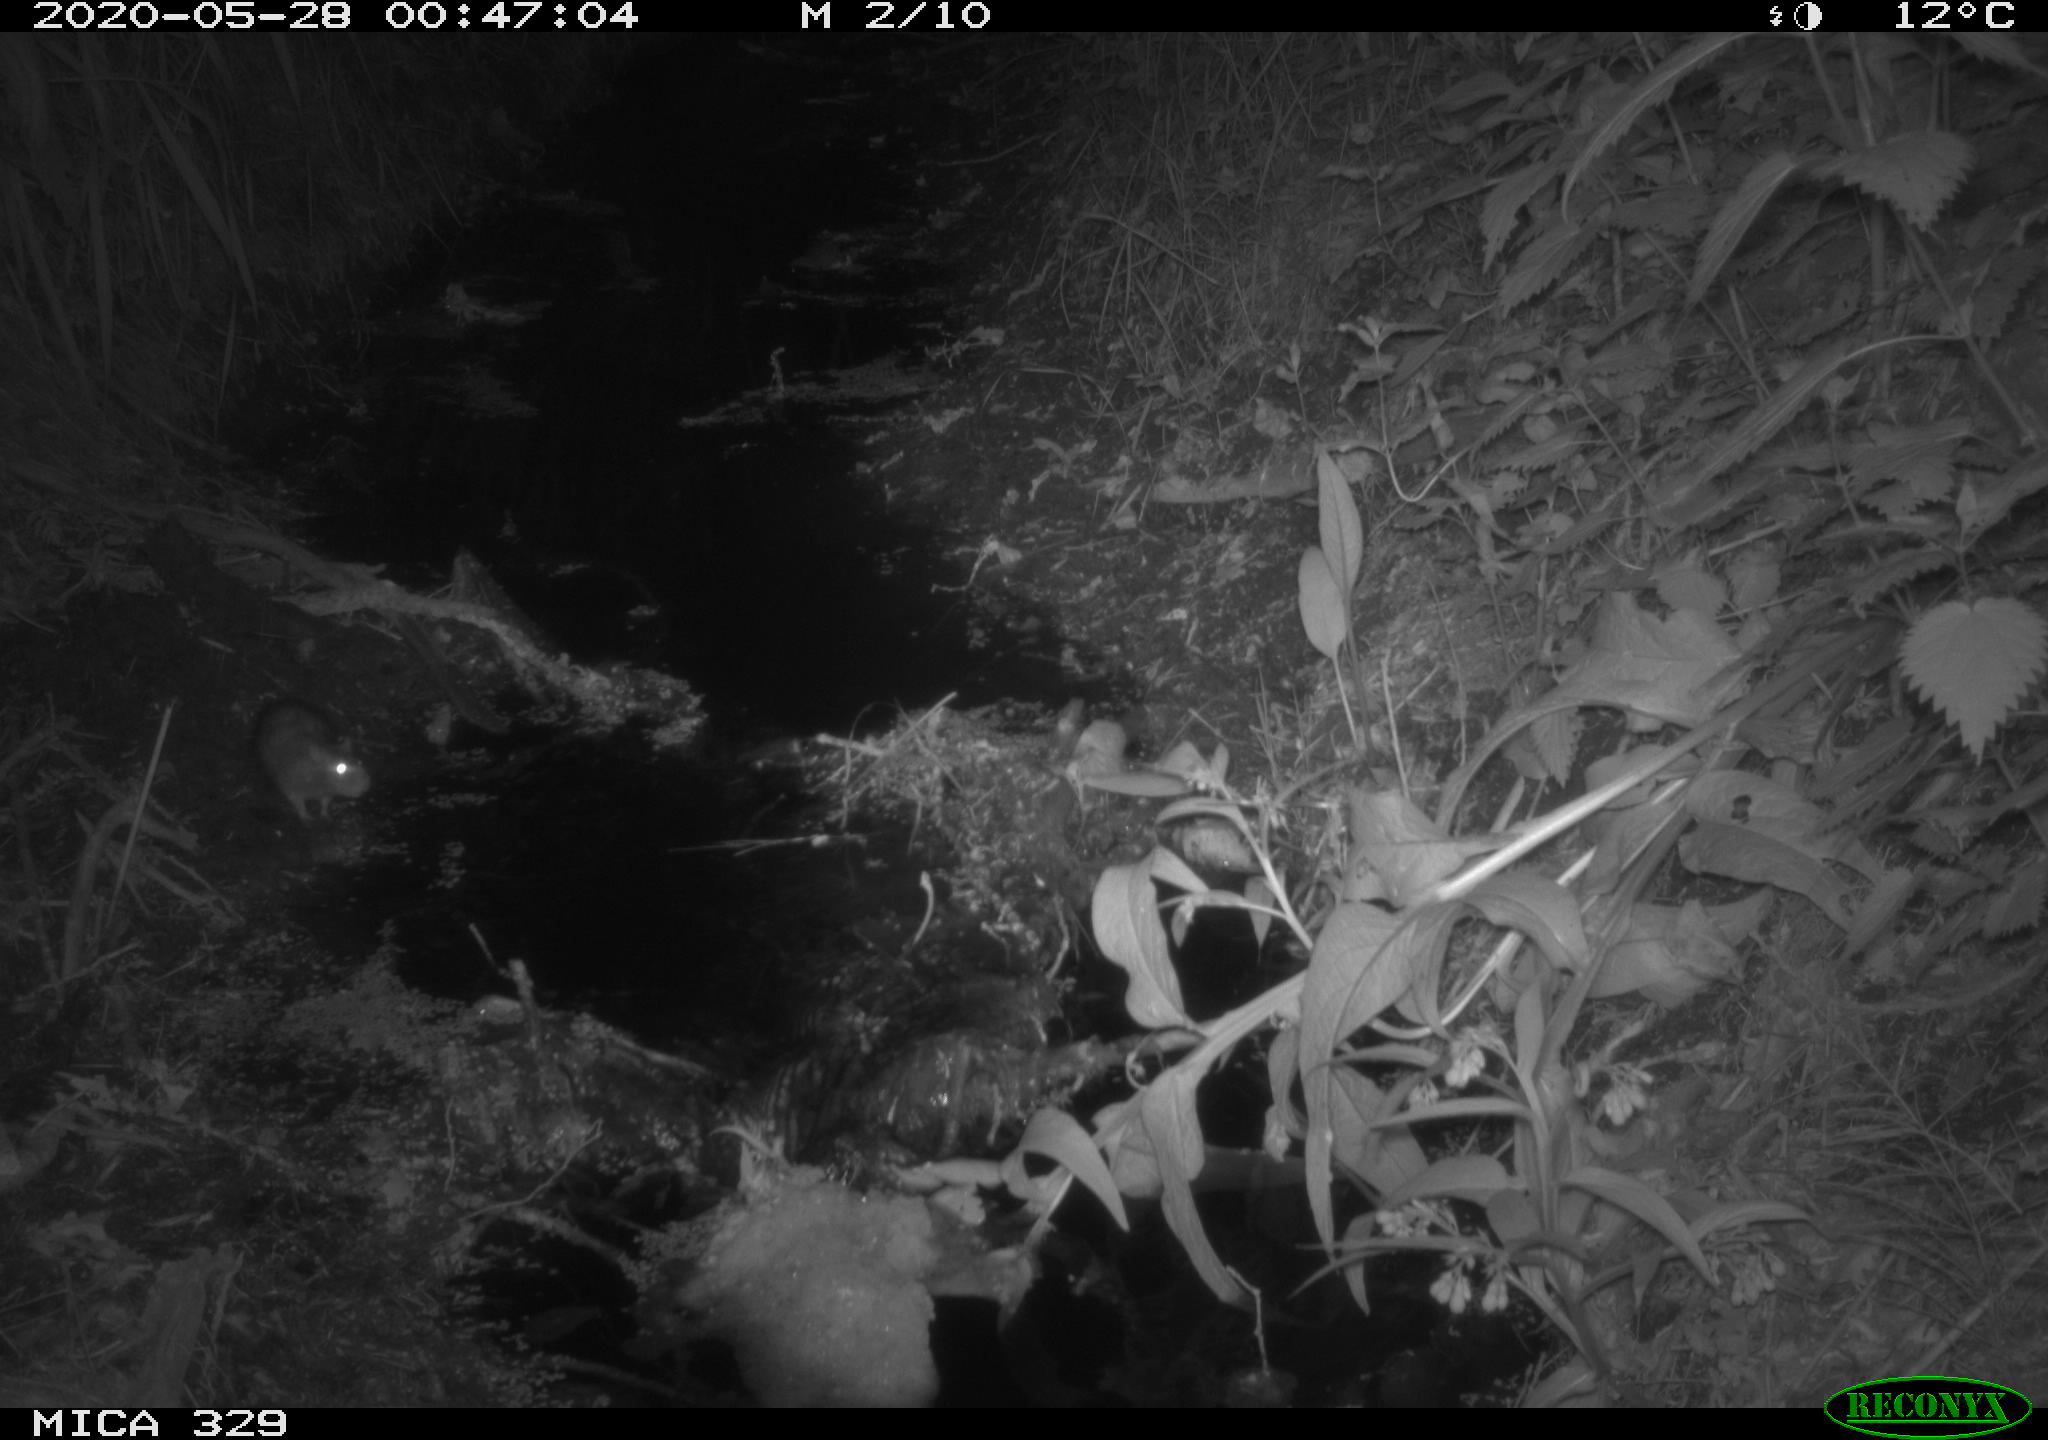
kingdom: Animalia
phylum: Chordata
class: Mammalia
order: Rodentia
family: Muridae
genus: Rattus
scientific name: Rattus norvegicus
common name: Brown rat
